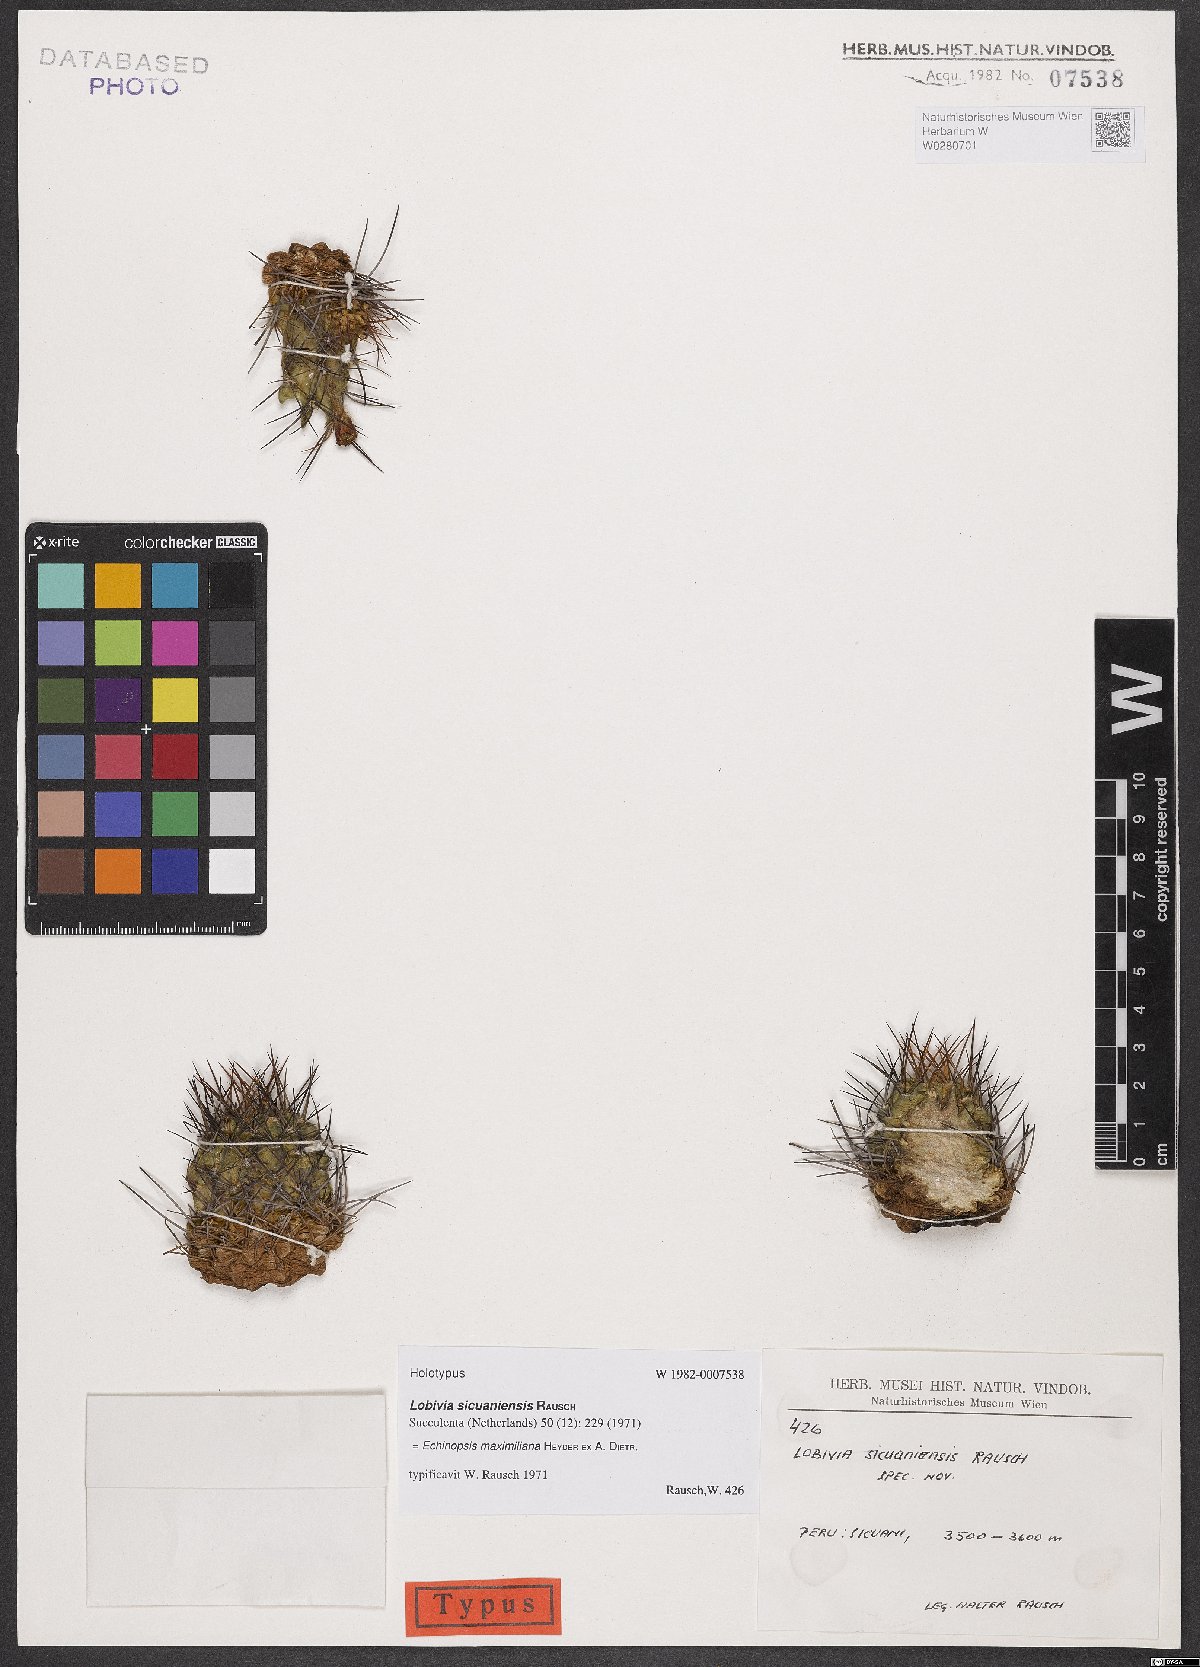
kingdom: Plantae
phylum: Tracheophyta
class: Magnoliopsida
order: Caryophyllales
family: Cactaceae
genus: Lobivia
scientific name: Lobivia maximiliana
